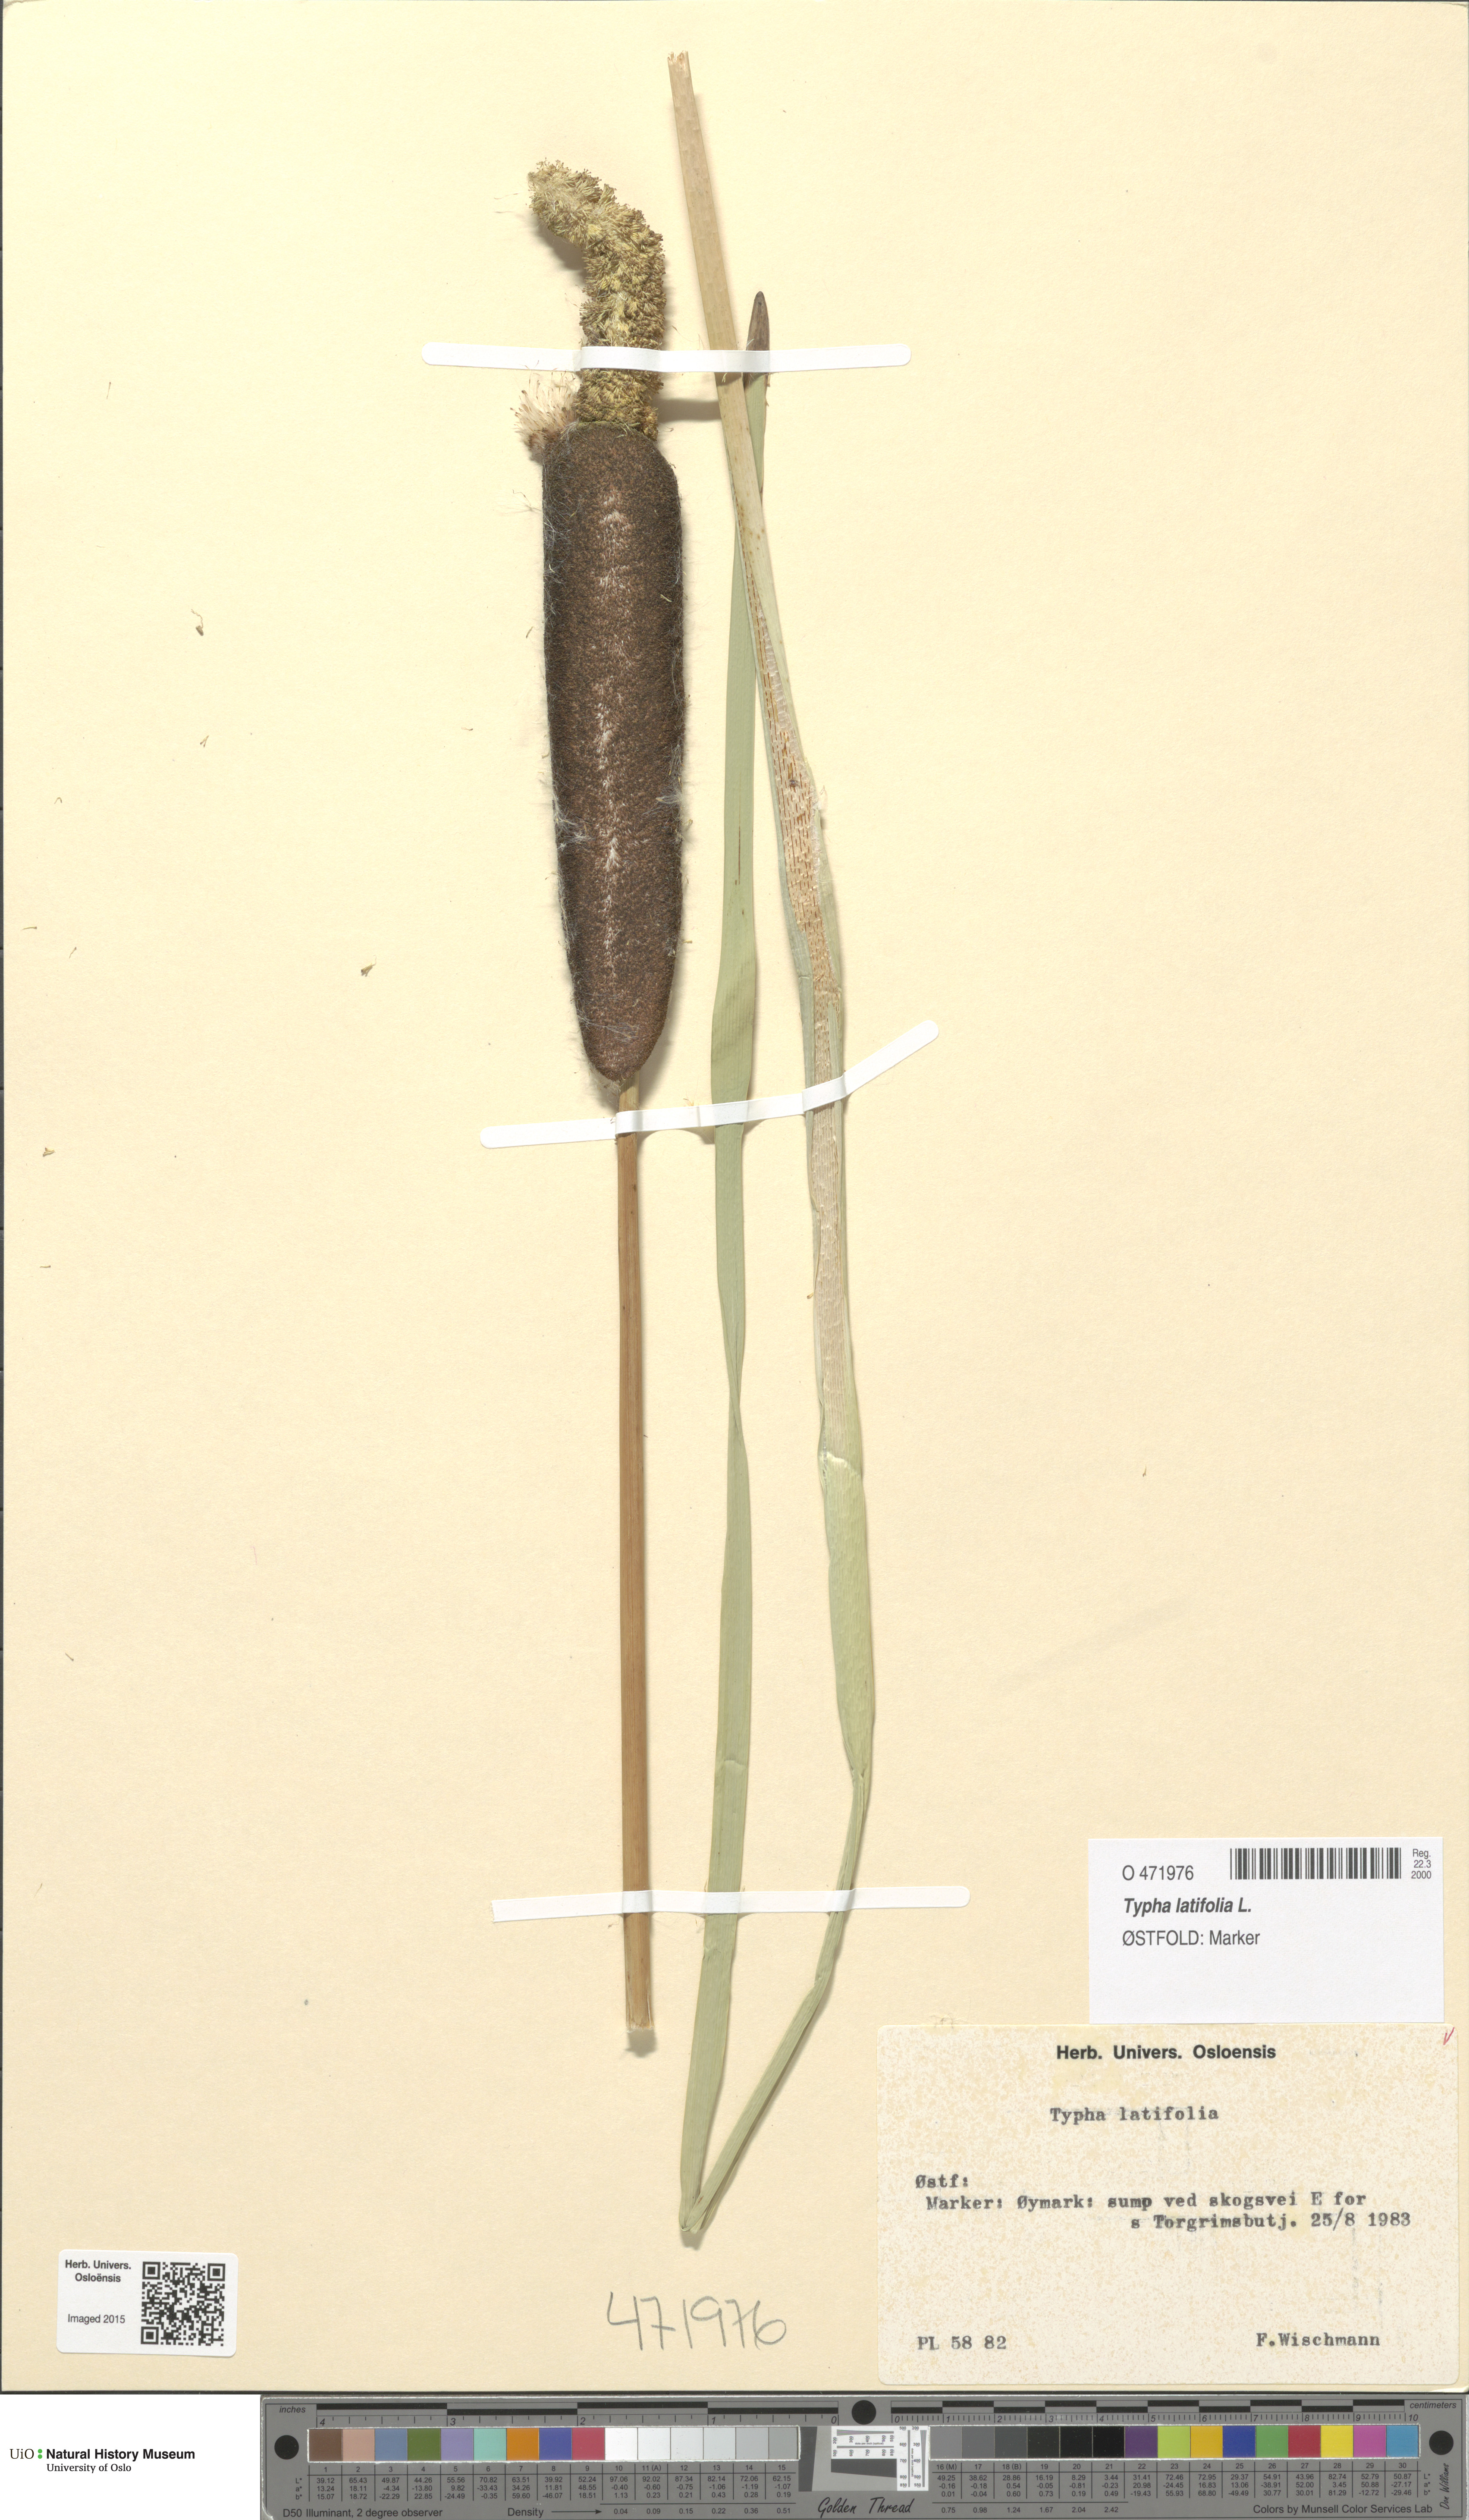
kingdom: Plantae
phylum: Tracheophyta
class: Liliopsida
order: Poales
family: Typhaceae
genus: Typha
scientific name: Typha latifolia
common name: Broadleaf cattail
